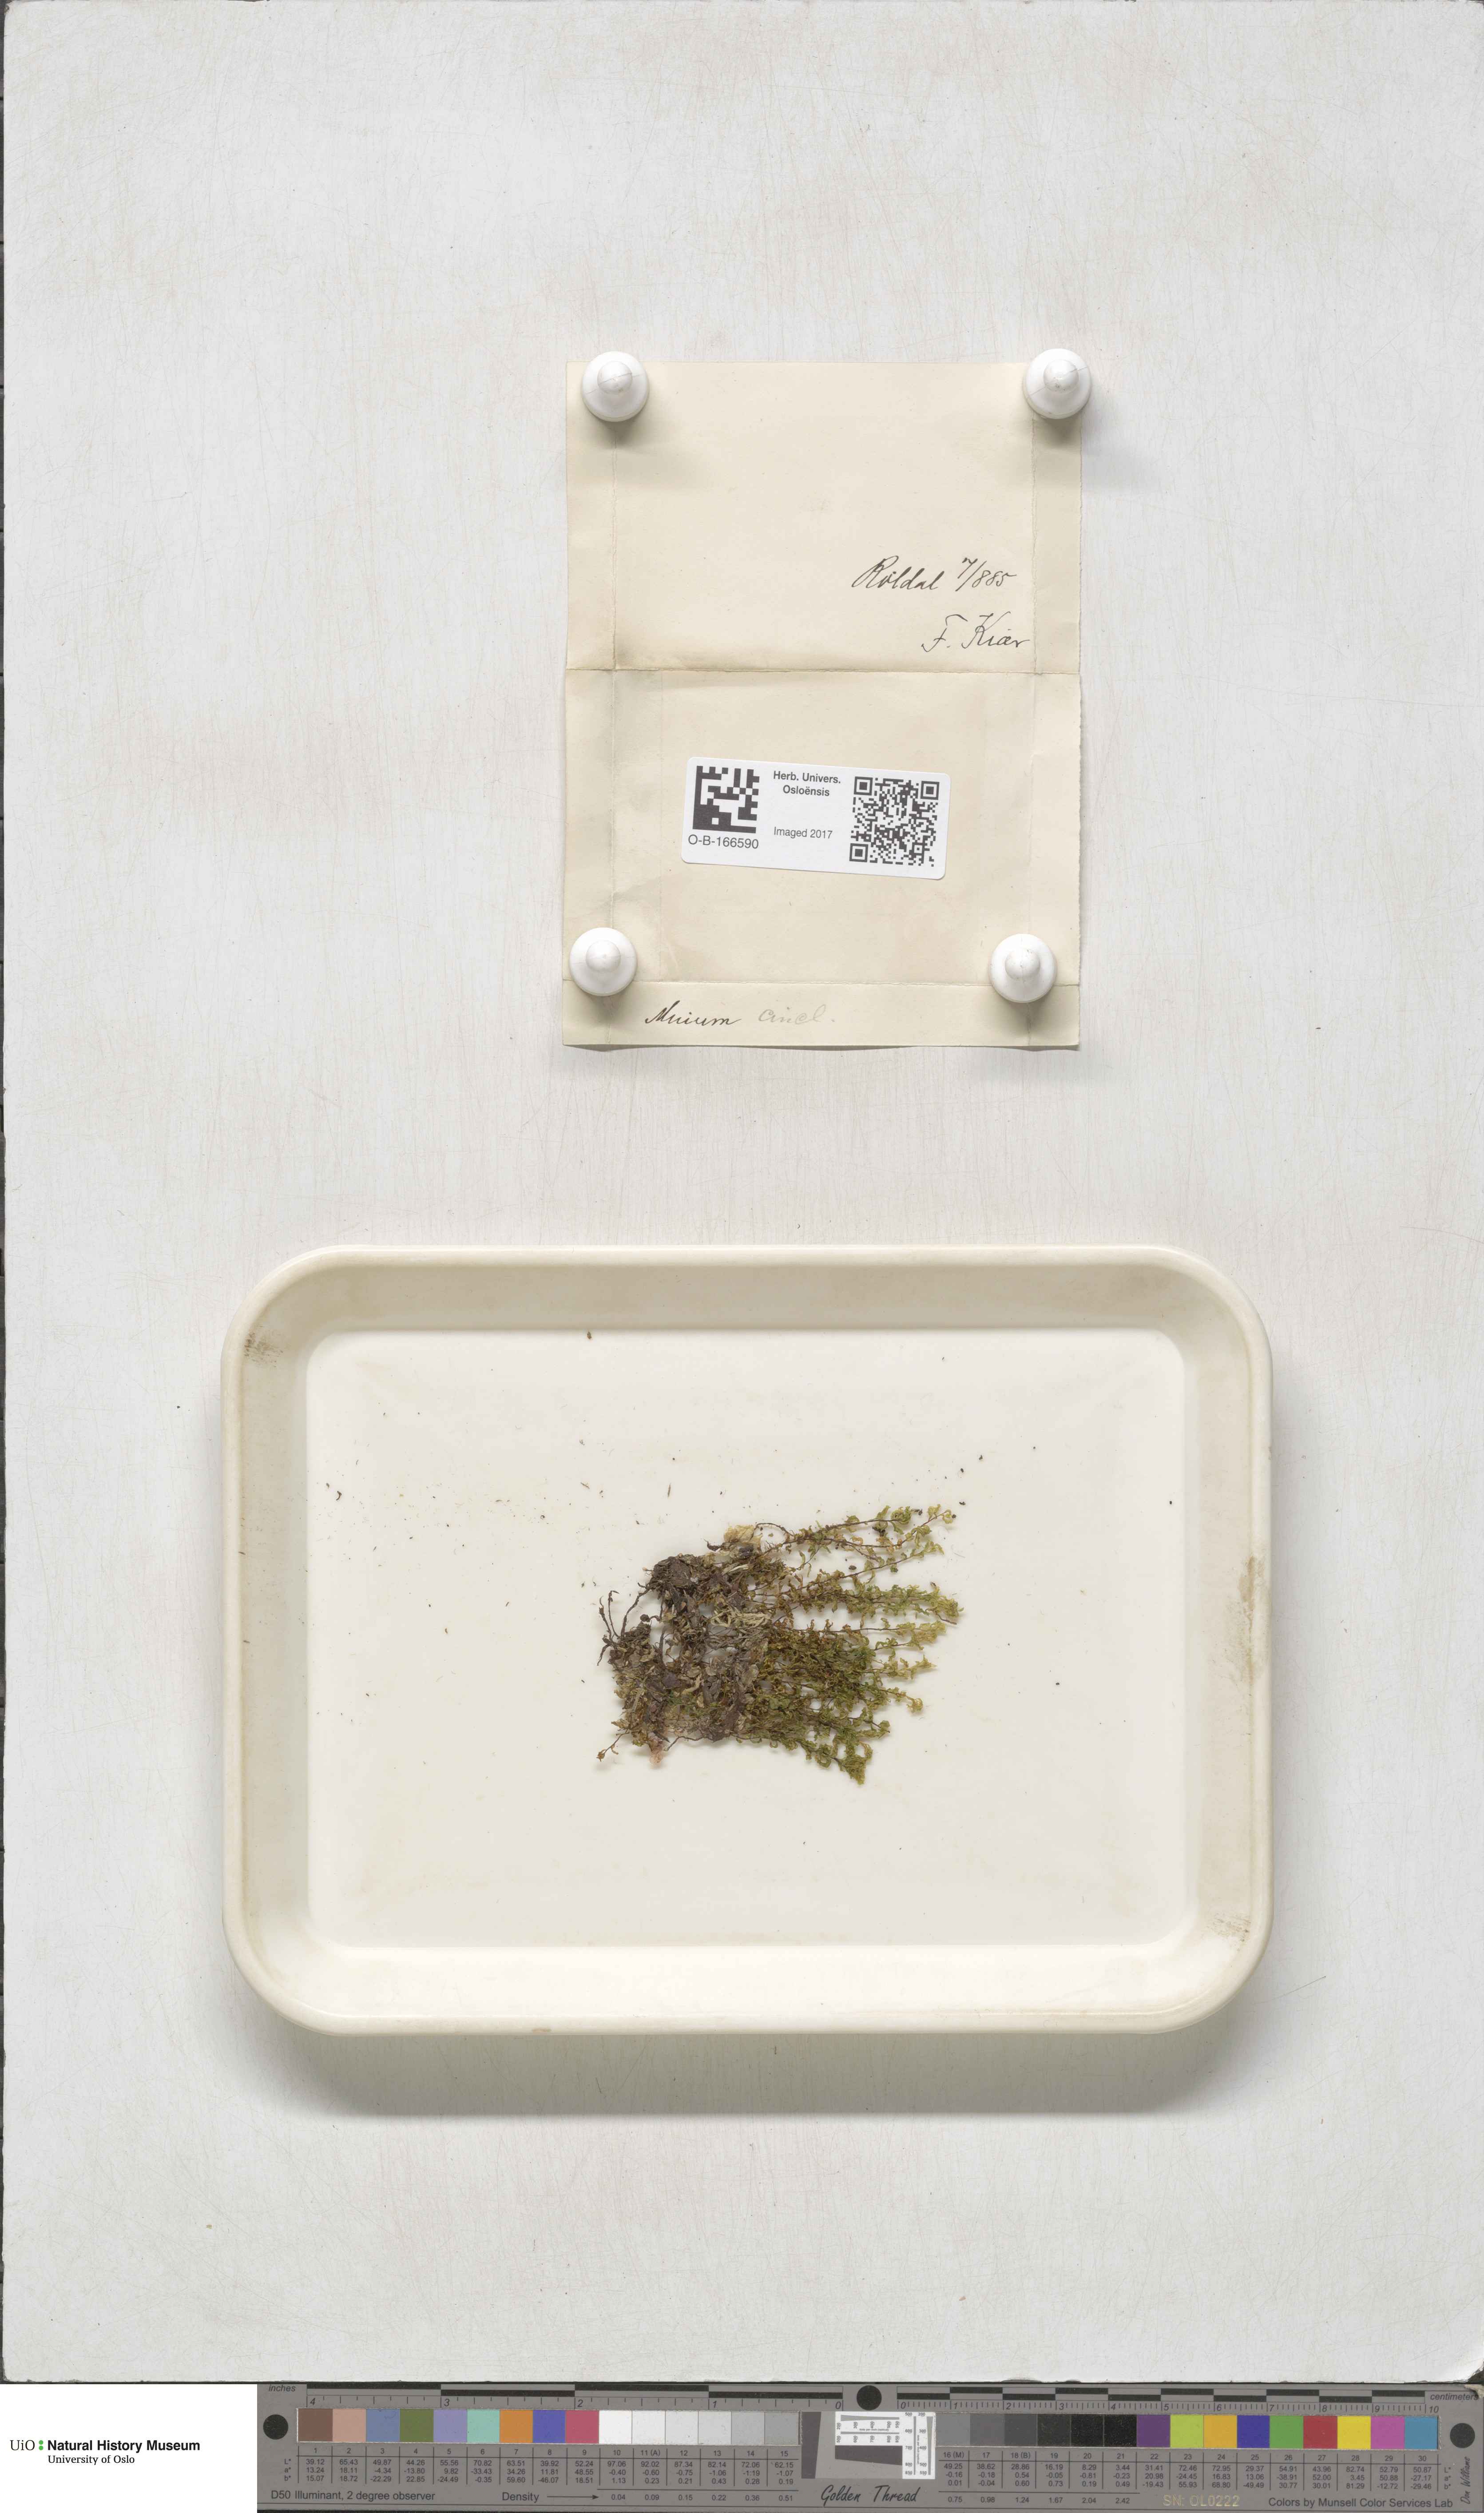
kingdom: Plantae
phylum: Bryophyta
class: Bryopsida
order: Bryales
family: Mniaceae
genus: Pseudobryum
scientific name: Pseudobryum cinclidioides
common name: River thyme moss
